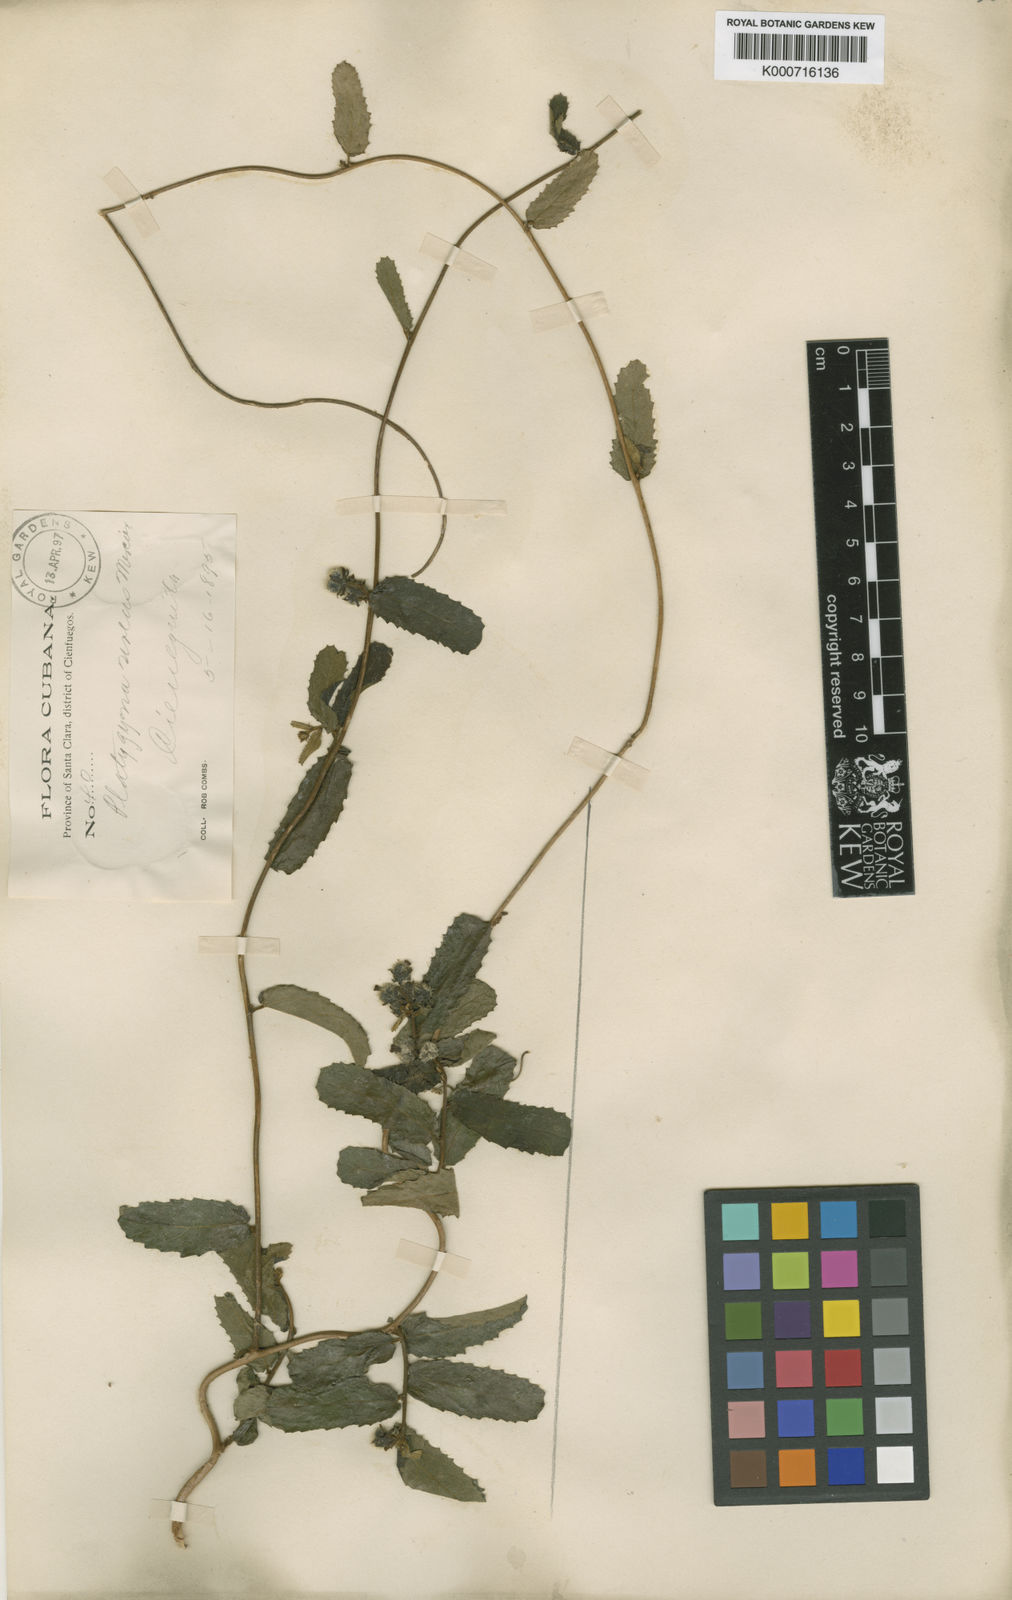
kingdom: Plantae
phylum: Tracheophyta
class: Magnoliopsida
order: Malpighiales
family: Euphorbiaceae
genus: Platygyna
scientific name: Platygyna
